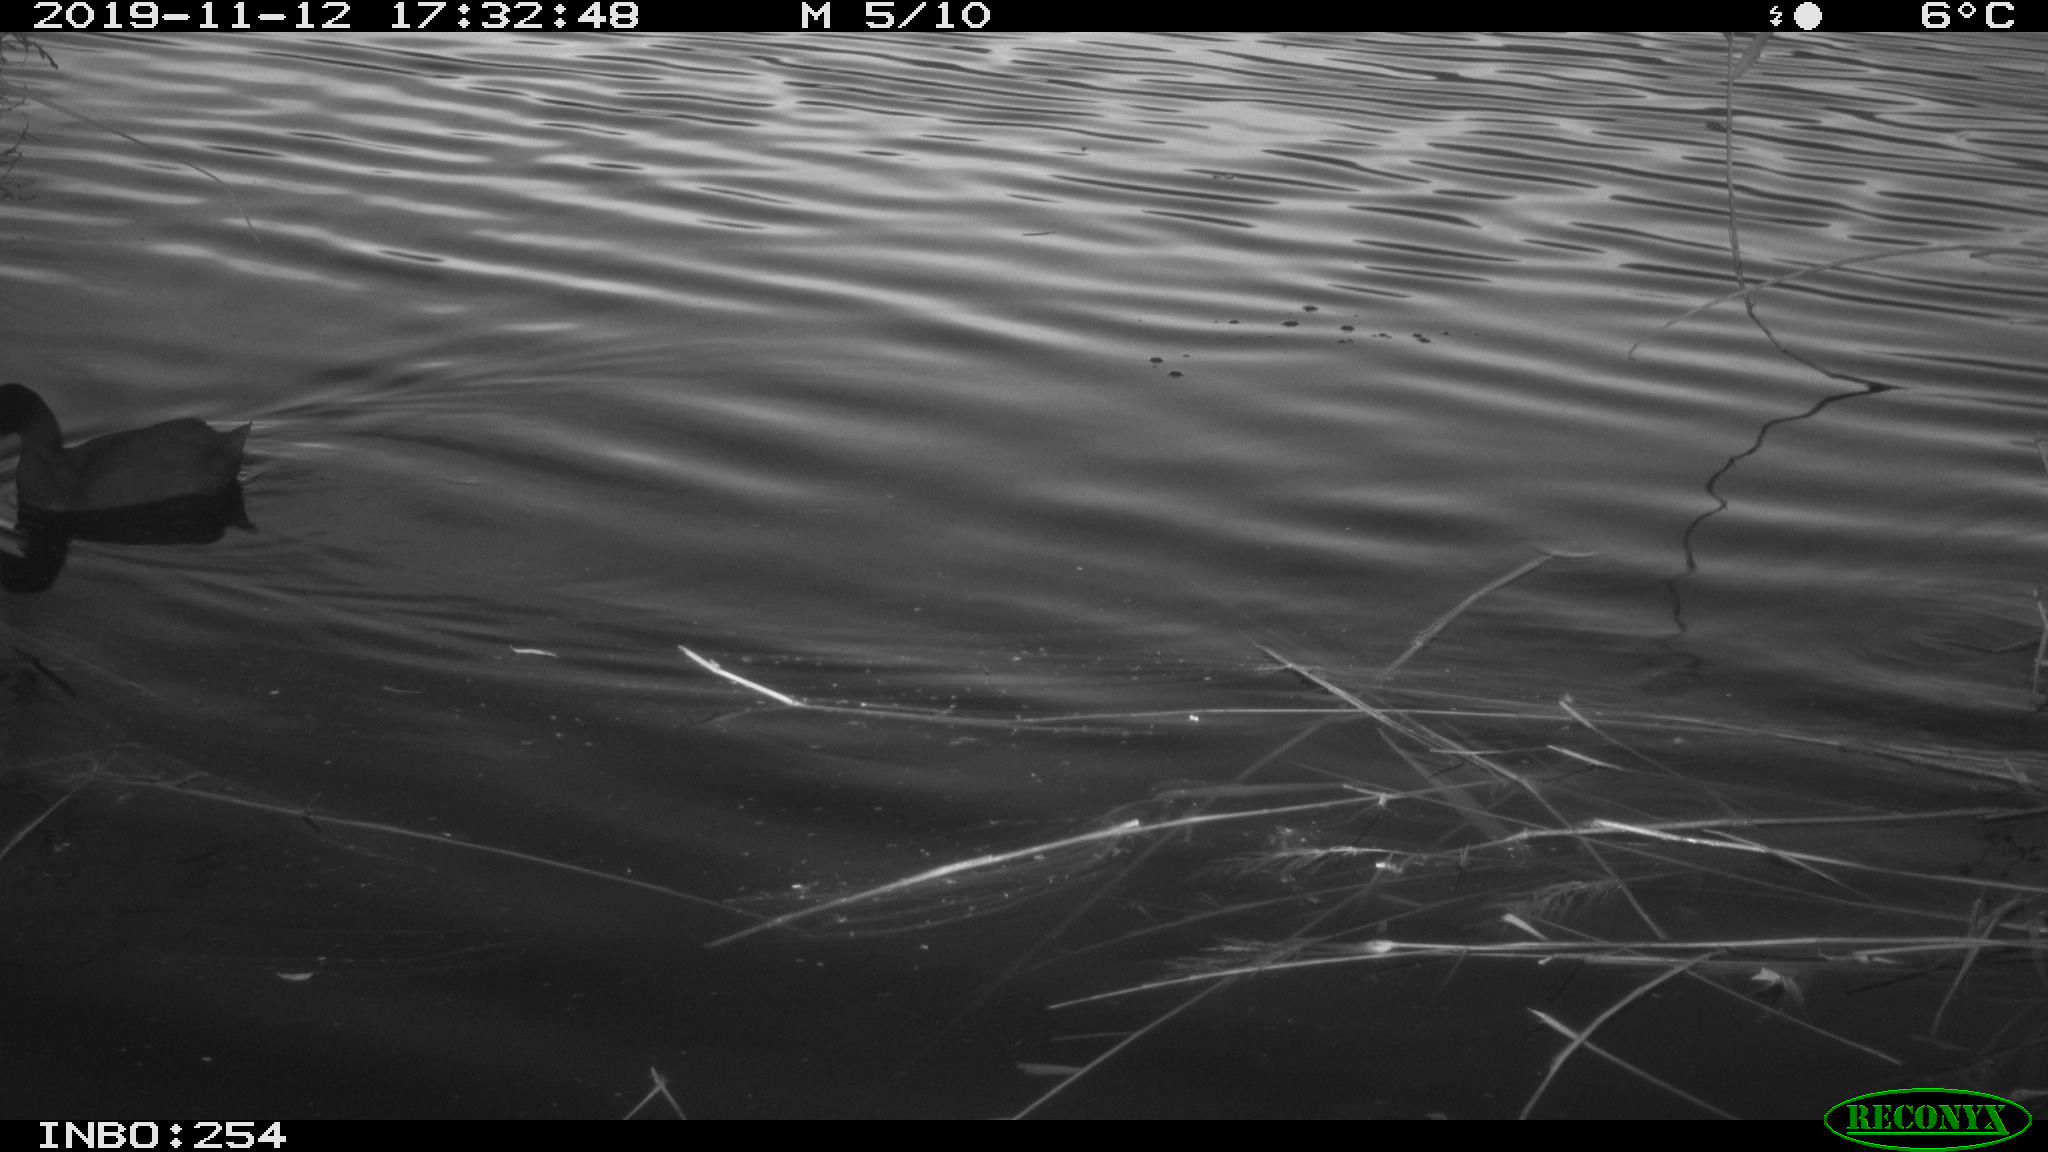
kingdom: Animalia
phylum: Chordata
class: Aves
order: Gruiformes
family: Rallidae
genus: Fulica
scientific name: Fulica atra
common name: Eurasian coot
